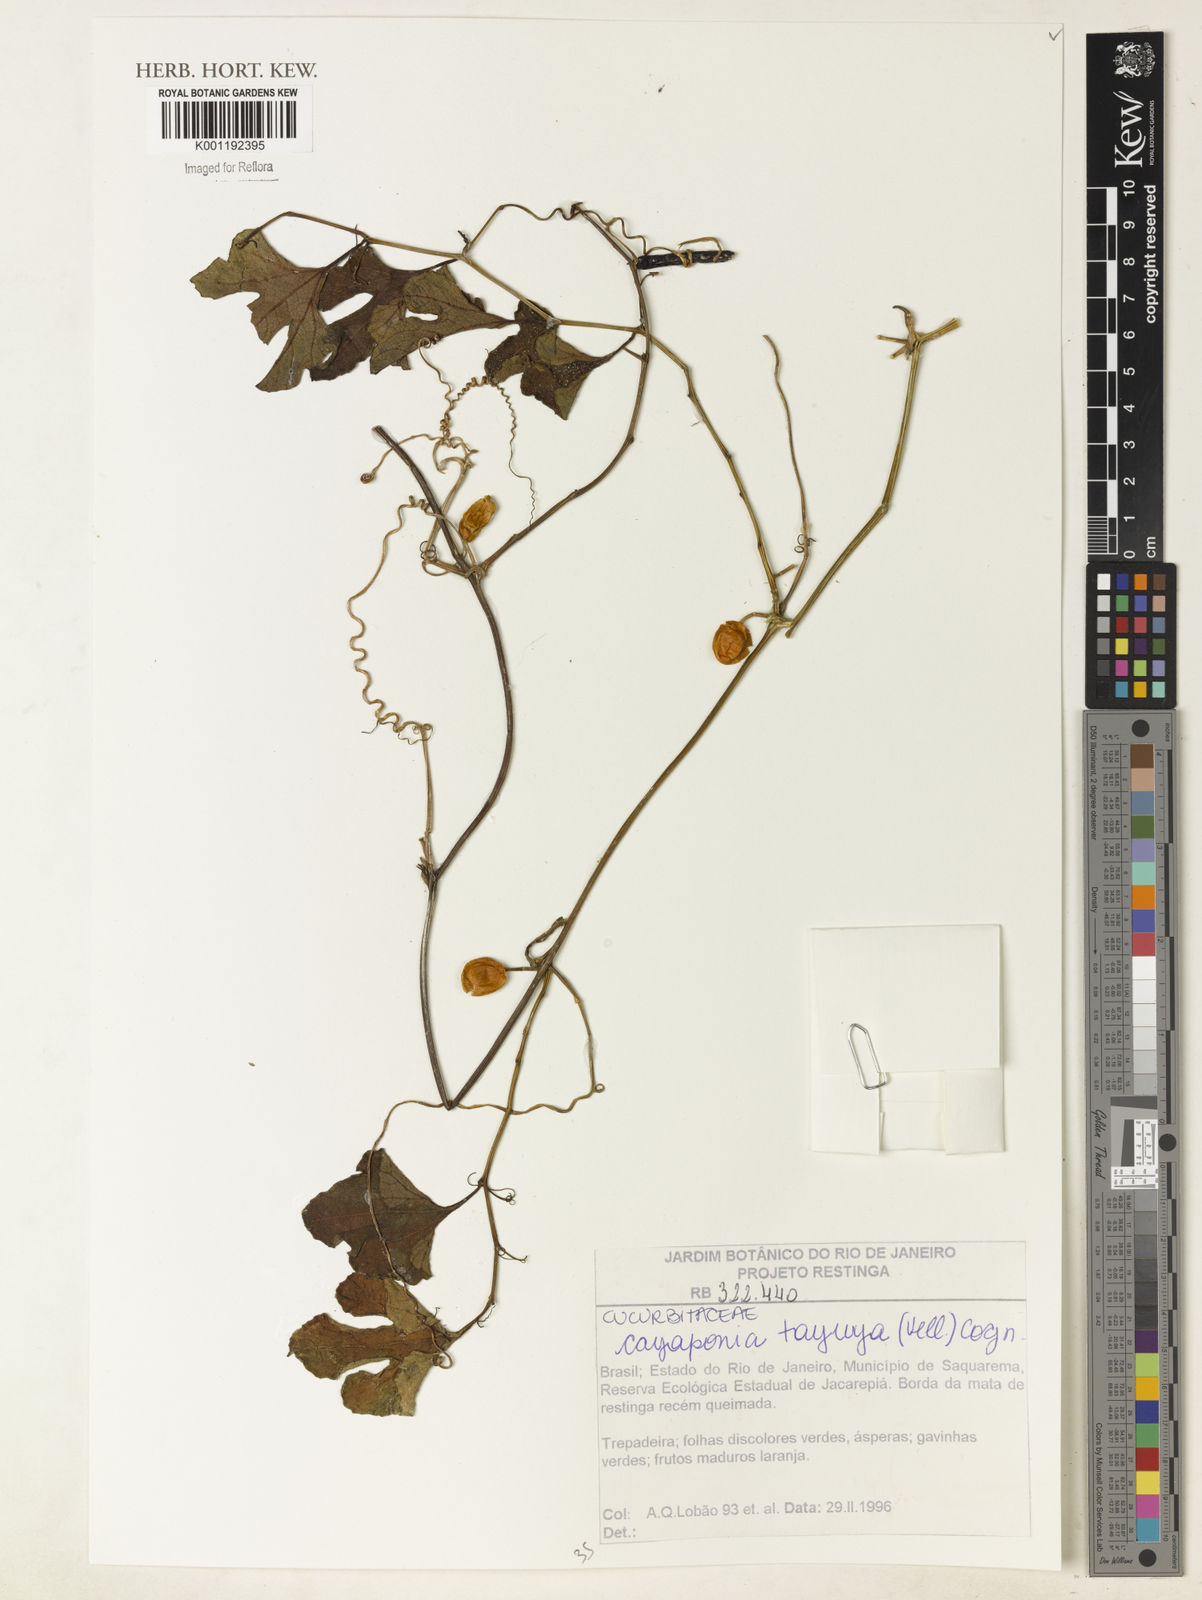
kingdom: Plantae
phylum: Tracheophyta
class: Magnoliopsida
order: Cucurbitales
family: Cucurbitaceae
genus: Cayaponia
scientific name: Cayaponia tayuya
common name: Tayuya
